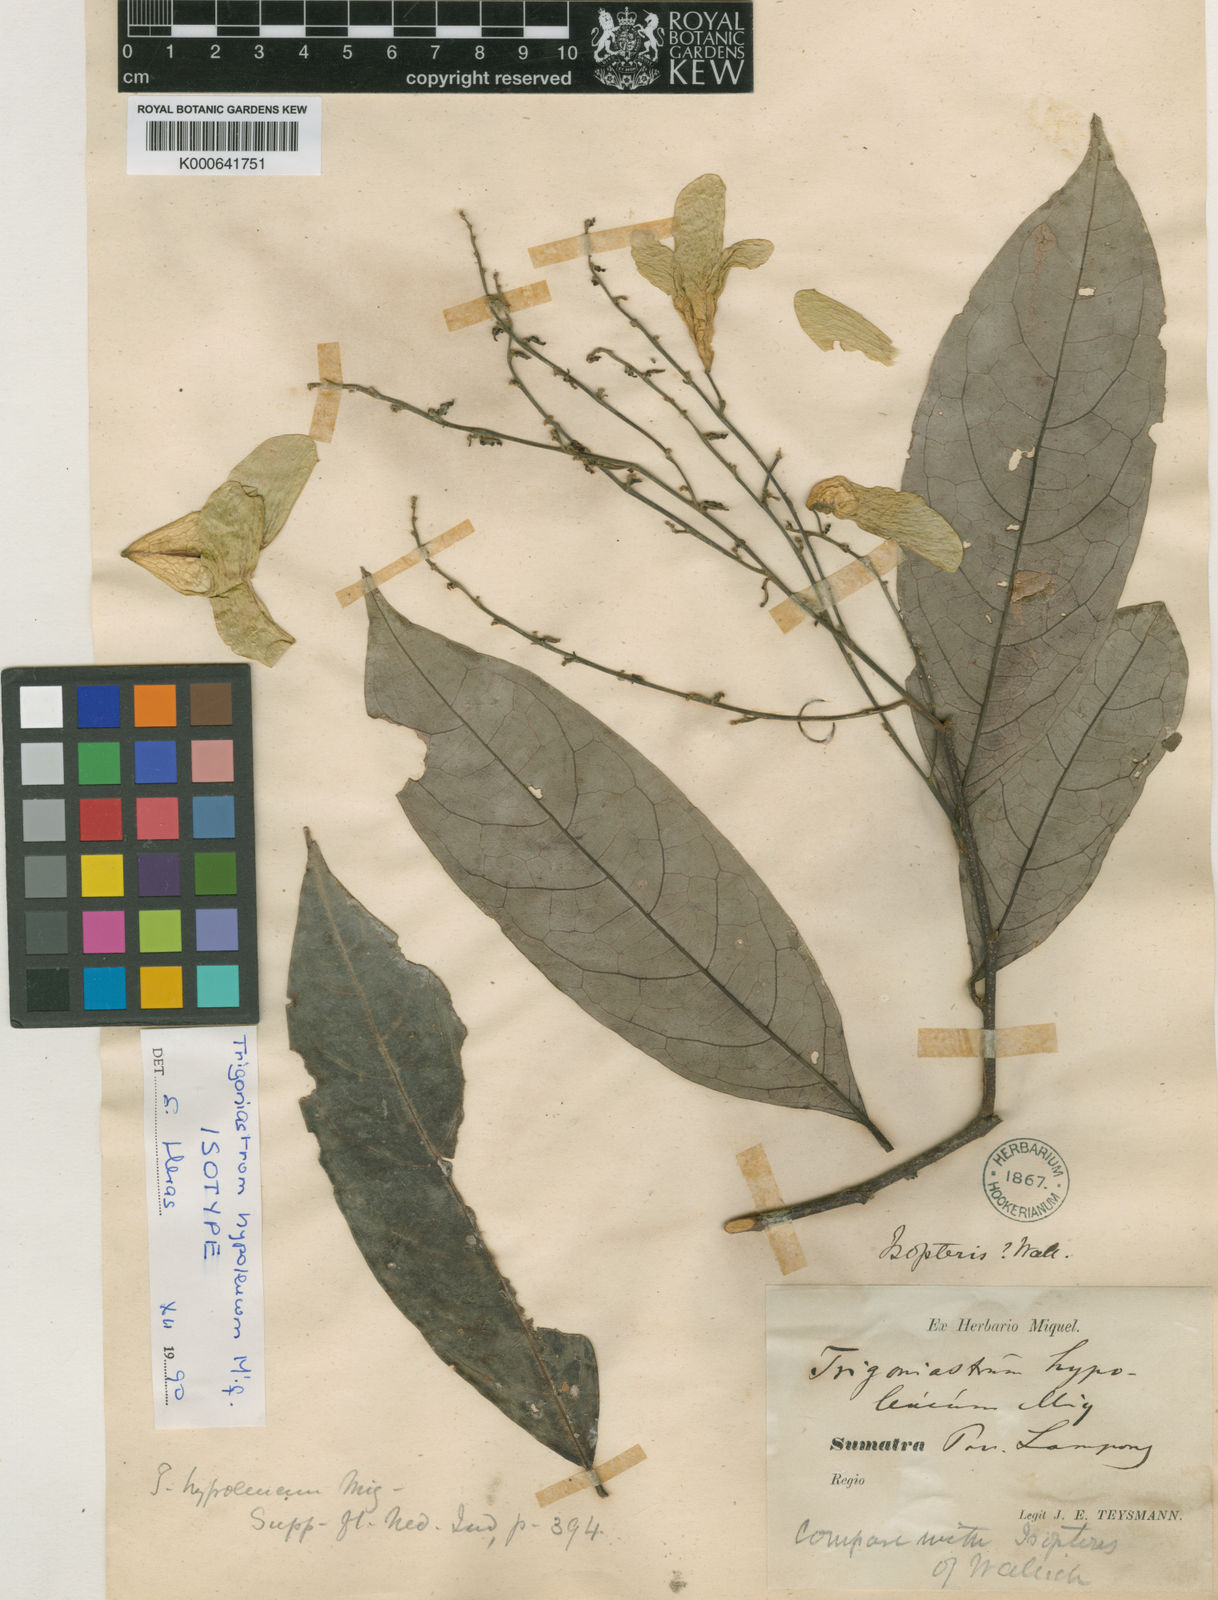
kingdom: Plantae
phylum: Tracheophyta
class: Magnoliopsida
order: Malpighiales
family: Trigoniaceae
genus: Trigoniastrum
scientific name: Trigoniastrum hypoleucum
